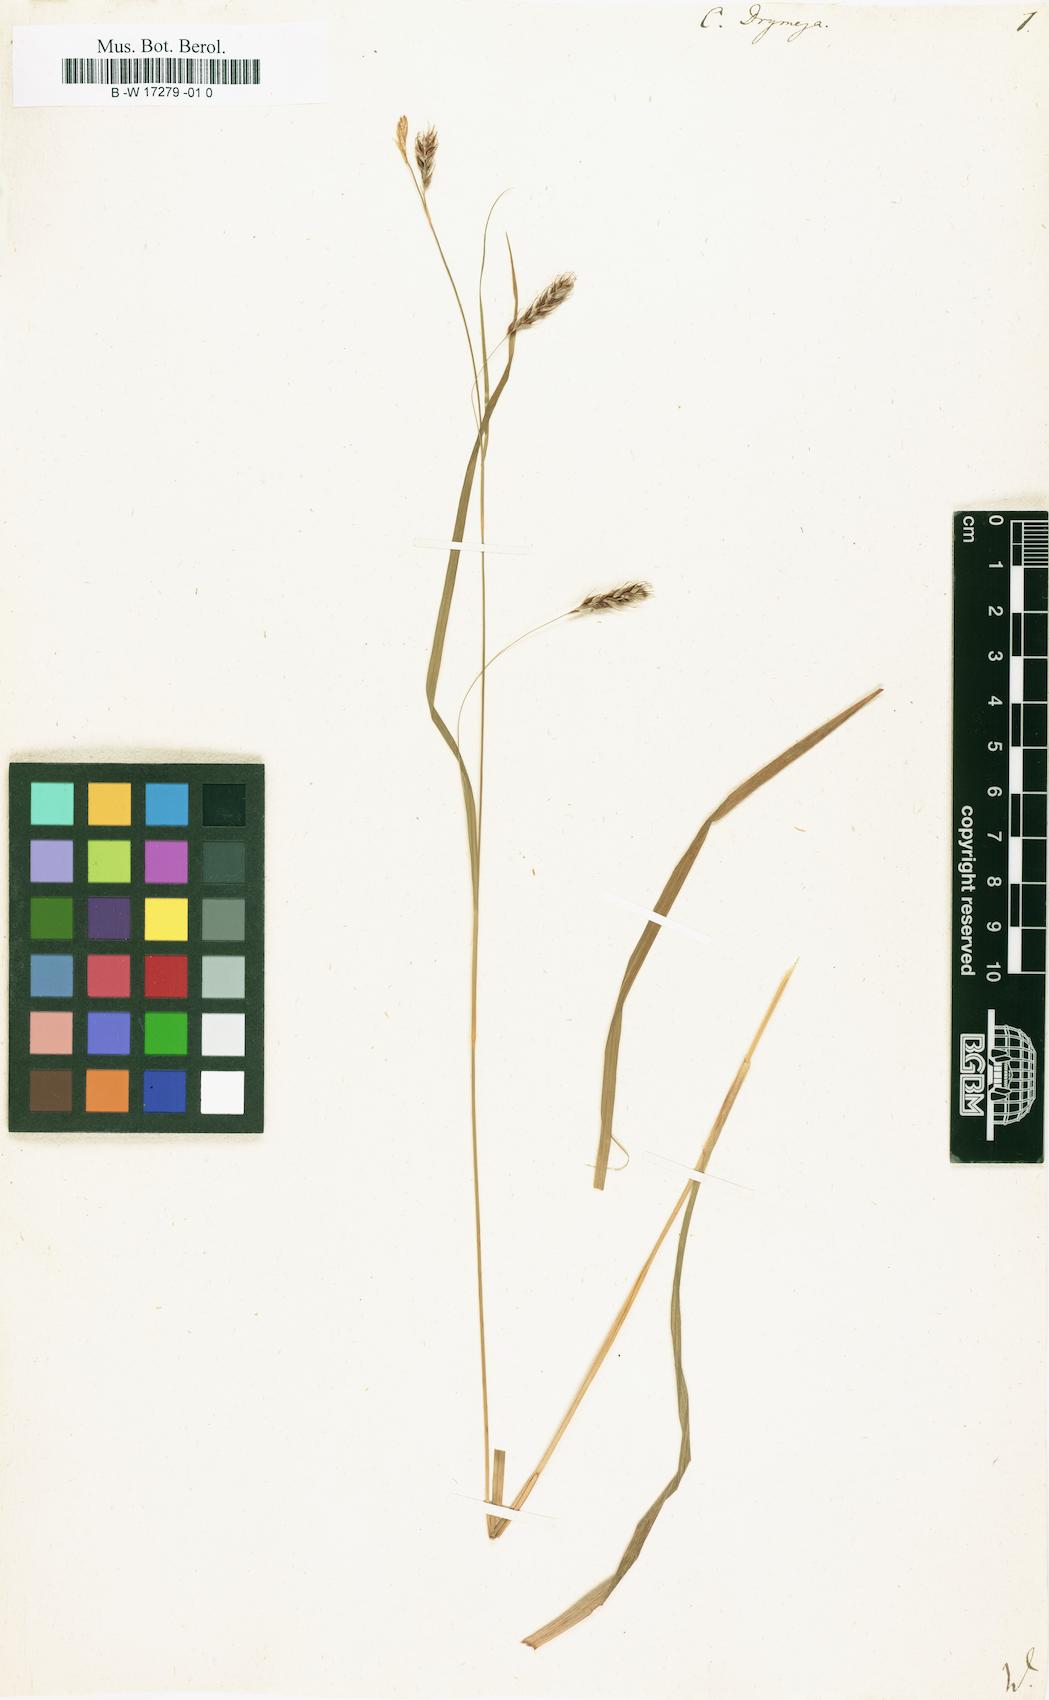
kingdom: Plantae
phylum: Tracheophyta
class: Liliopsida
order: Poales
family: Cyperaceae
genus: Carex
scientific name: Carex sylvatica
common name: Wood-sedge
